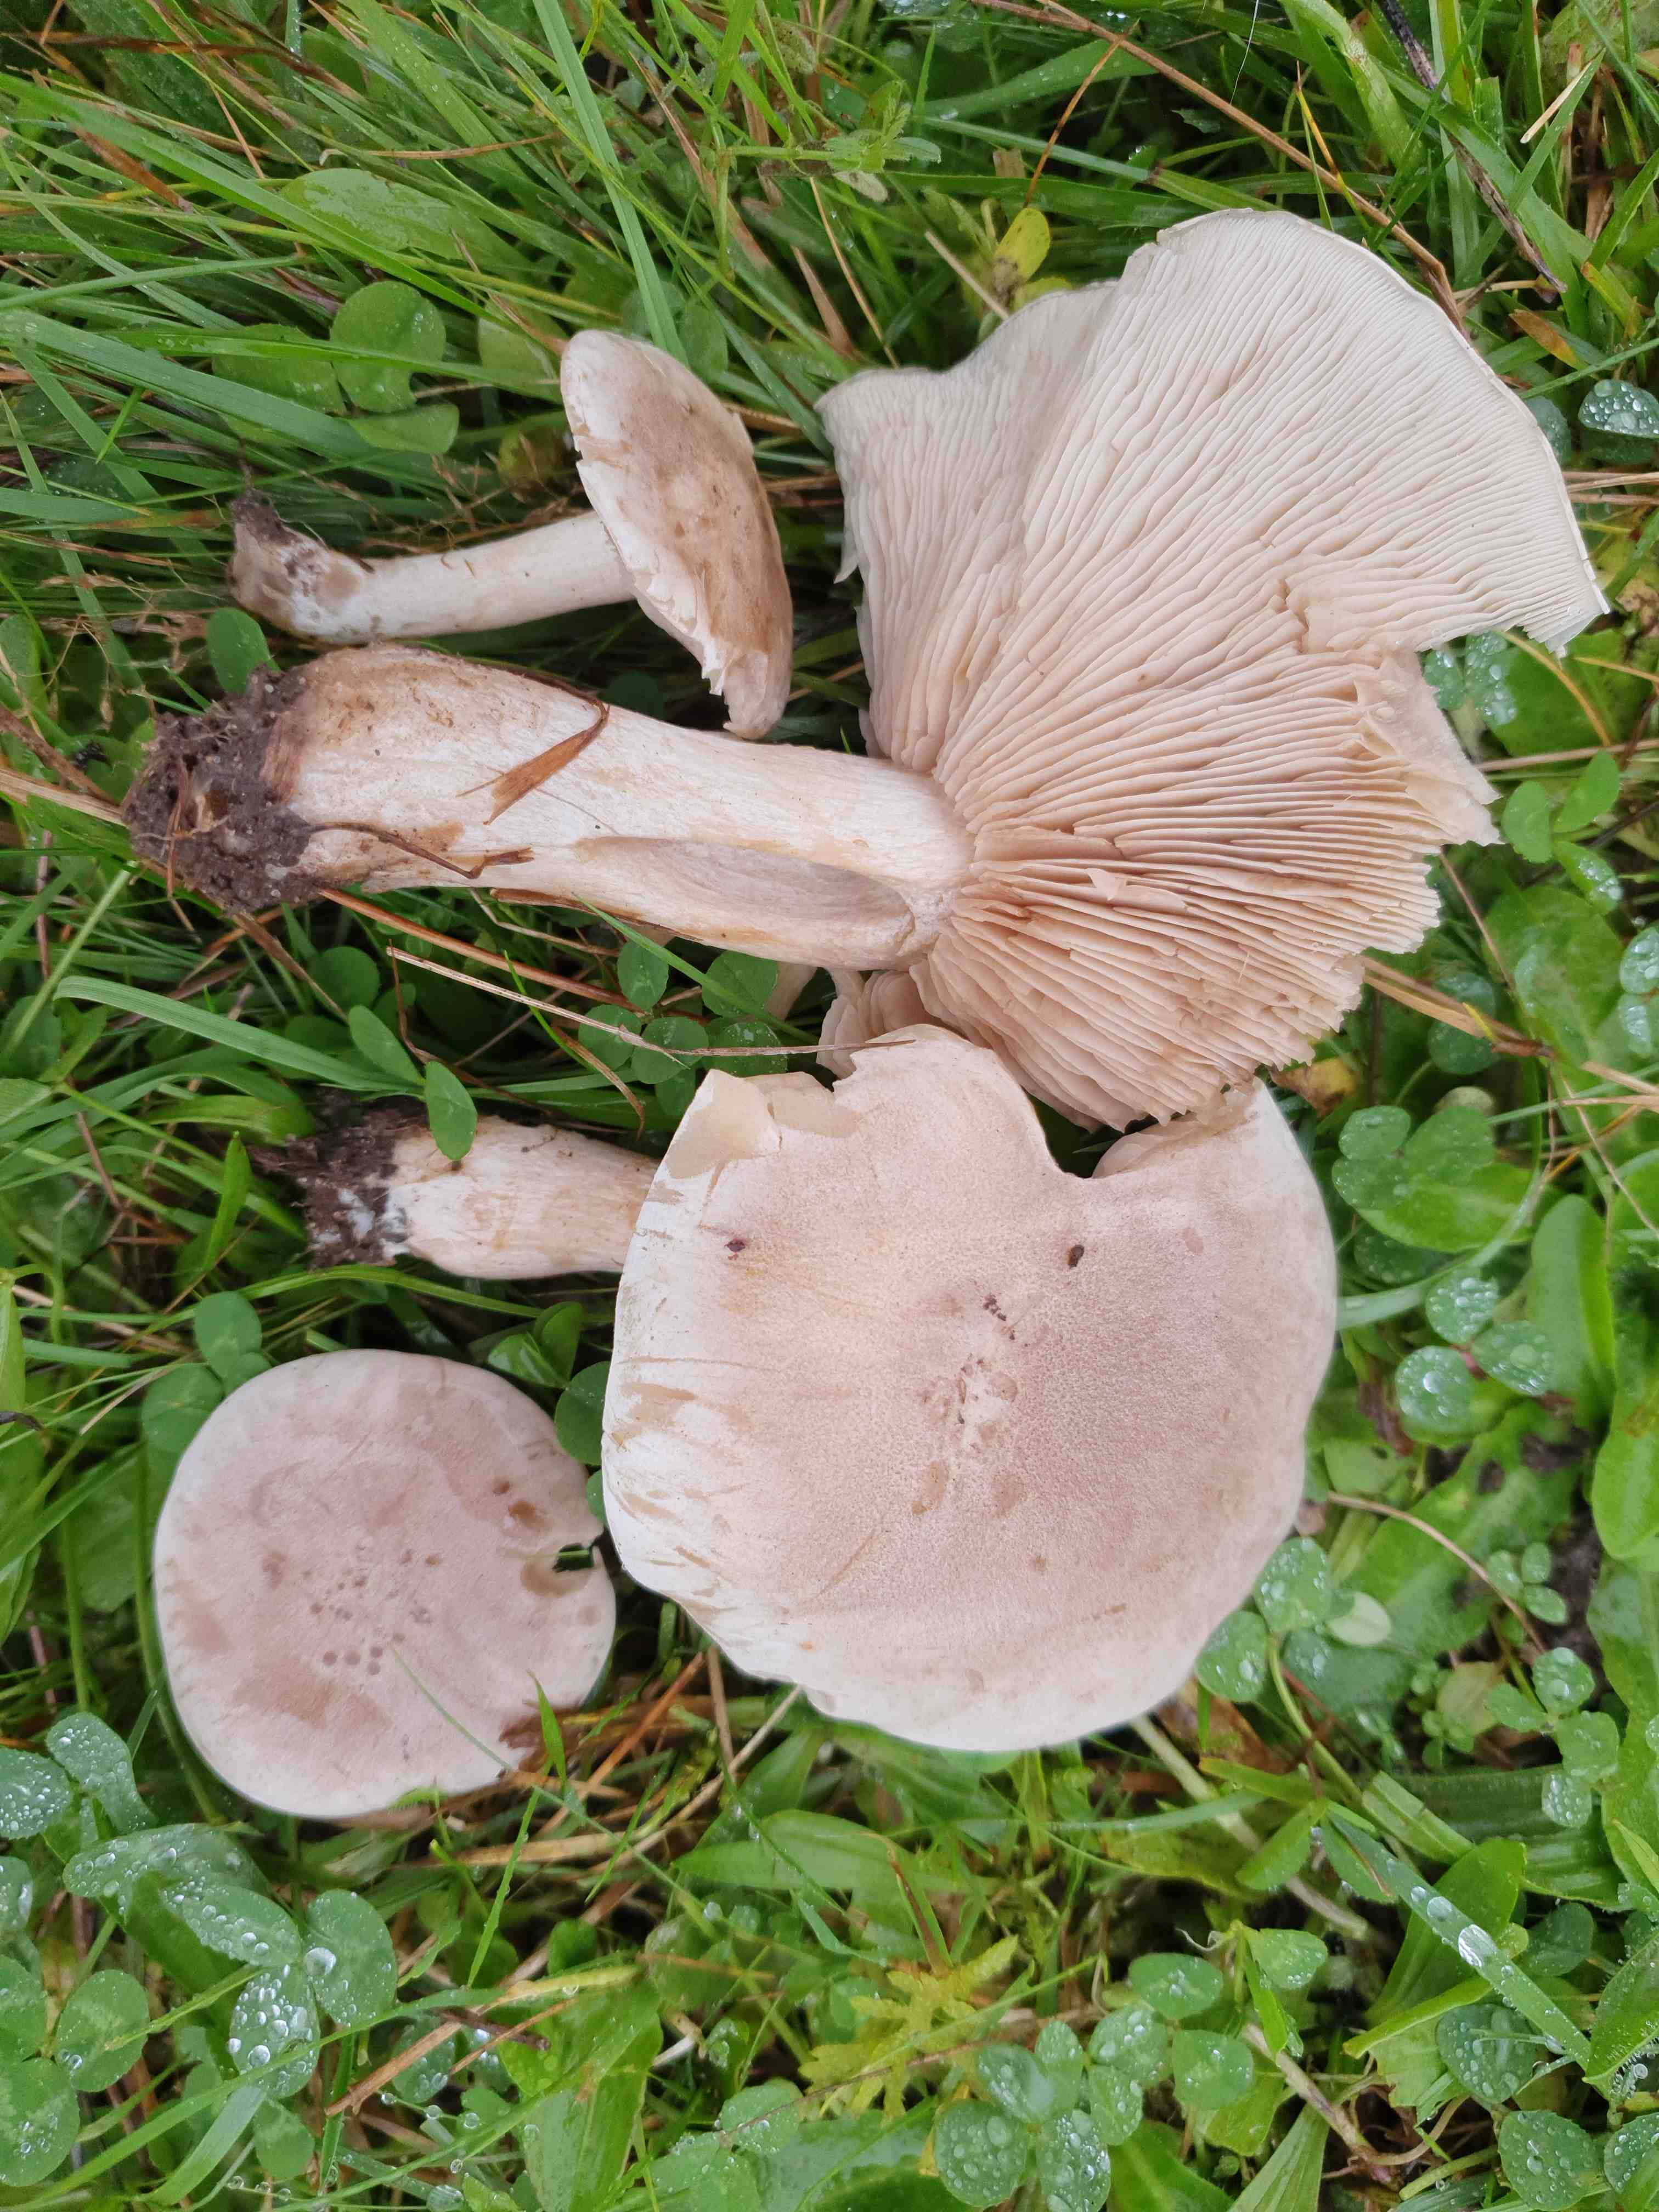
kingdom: Fungi
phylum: Basidiomycota
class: Agaricomycetes
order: Agaricales
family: Tricholomataceae
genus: Lepista
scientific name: Lepista panaeolus
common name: marmoreret hekseringshat
